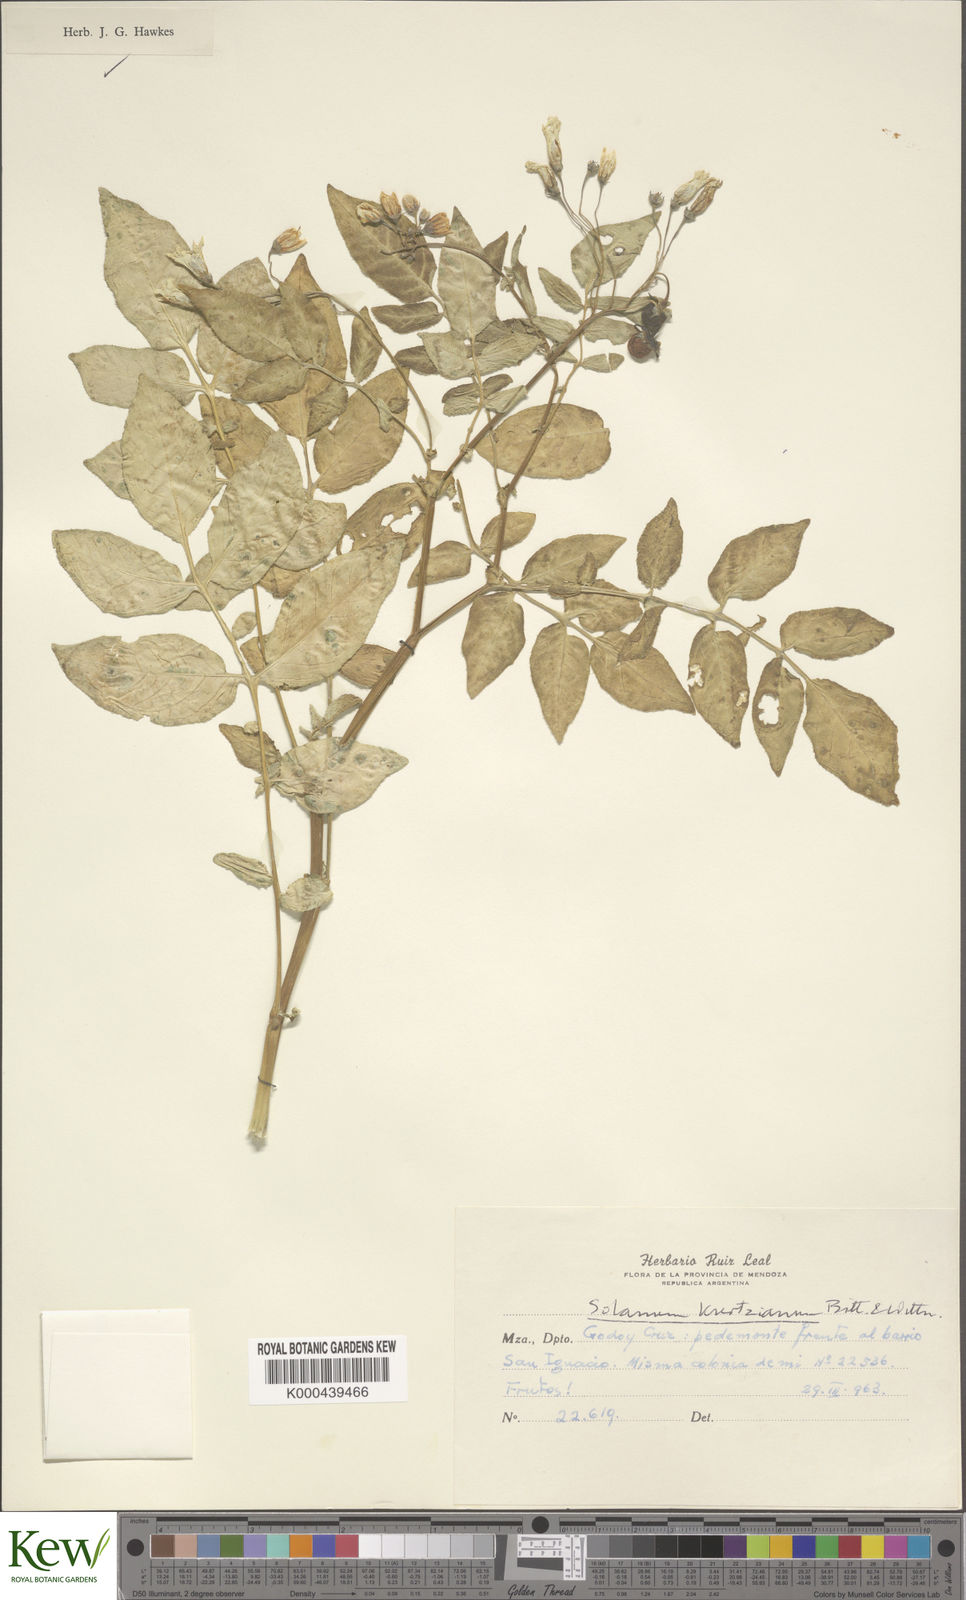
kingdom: Plantae
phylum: Tracheophyta
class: Magnoliopsida
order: Solanales
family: Solanaceae
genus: Solanum
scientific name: Solanum kurtzianum
